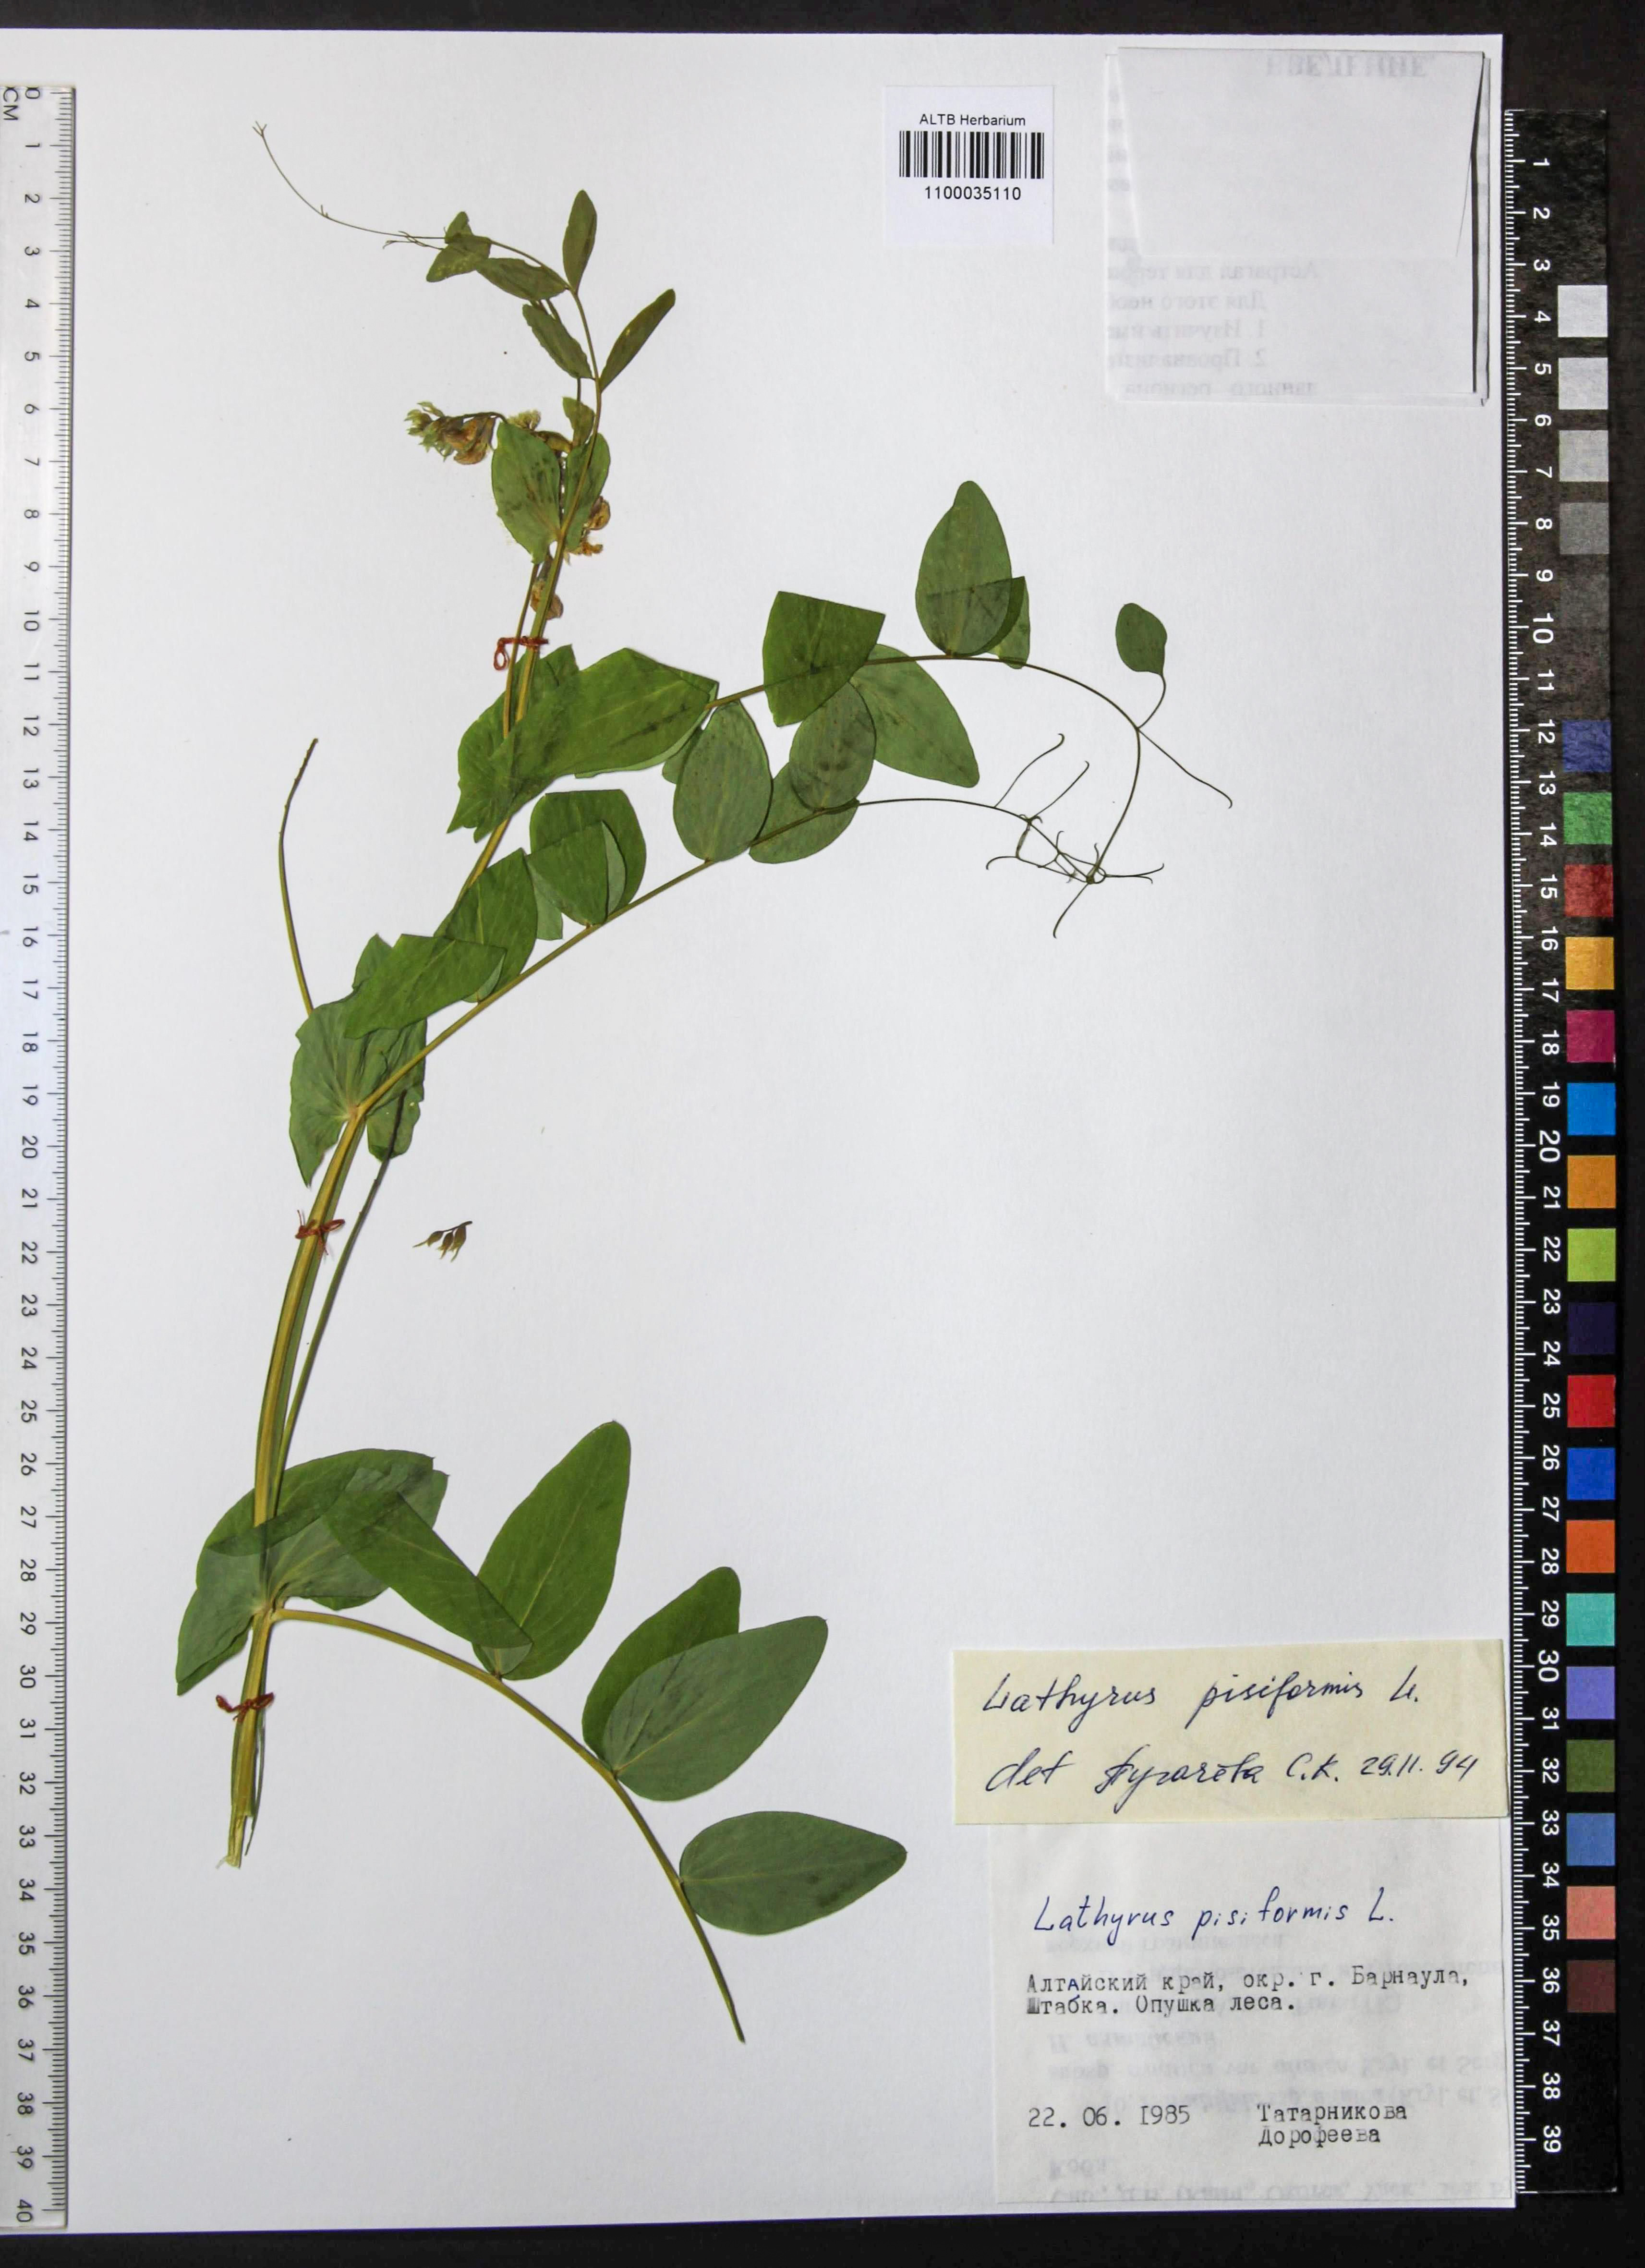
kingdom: Plantae
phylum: Tracheophyta
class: Magnoliopsida
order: Fabales
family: Fabaceae
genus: Lathyrus
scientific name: Lathyrus pisiformis
